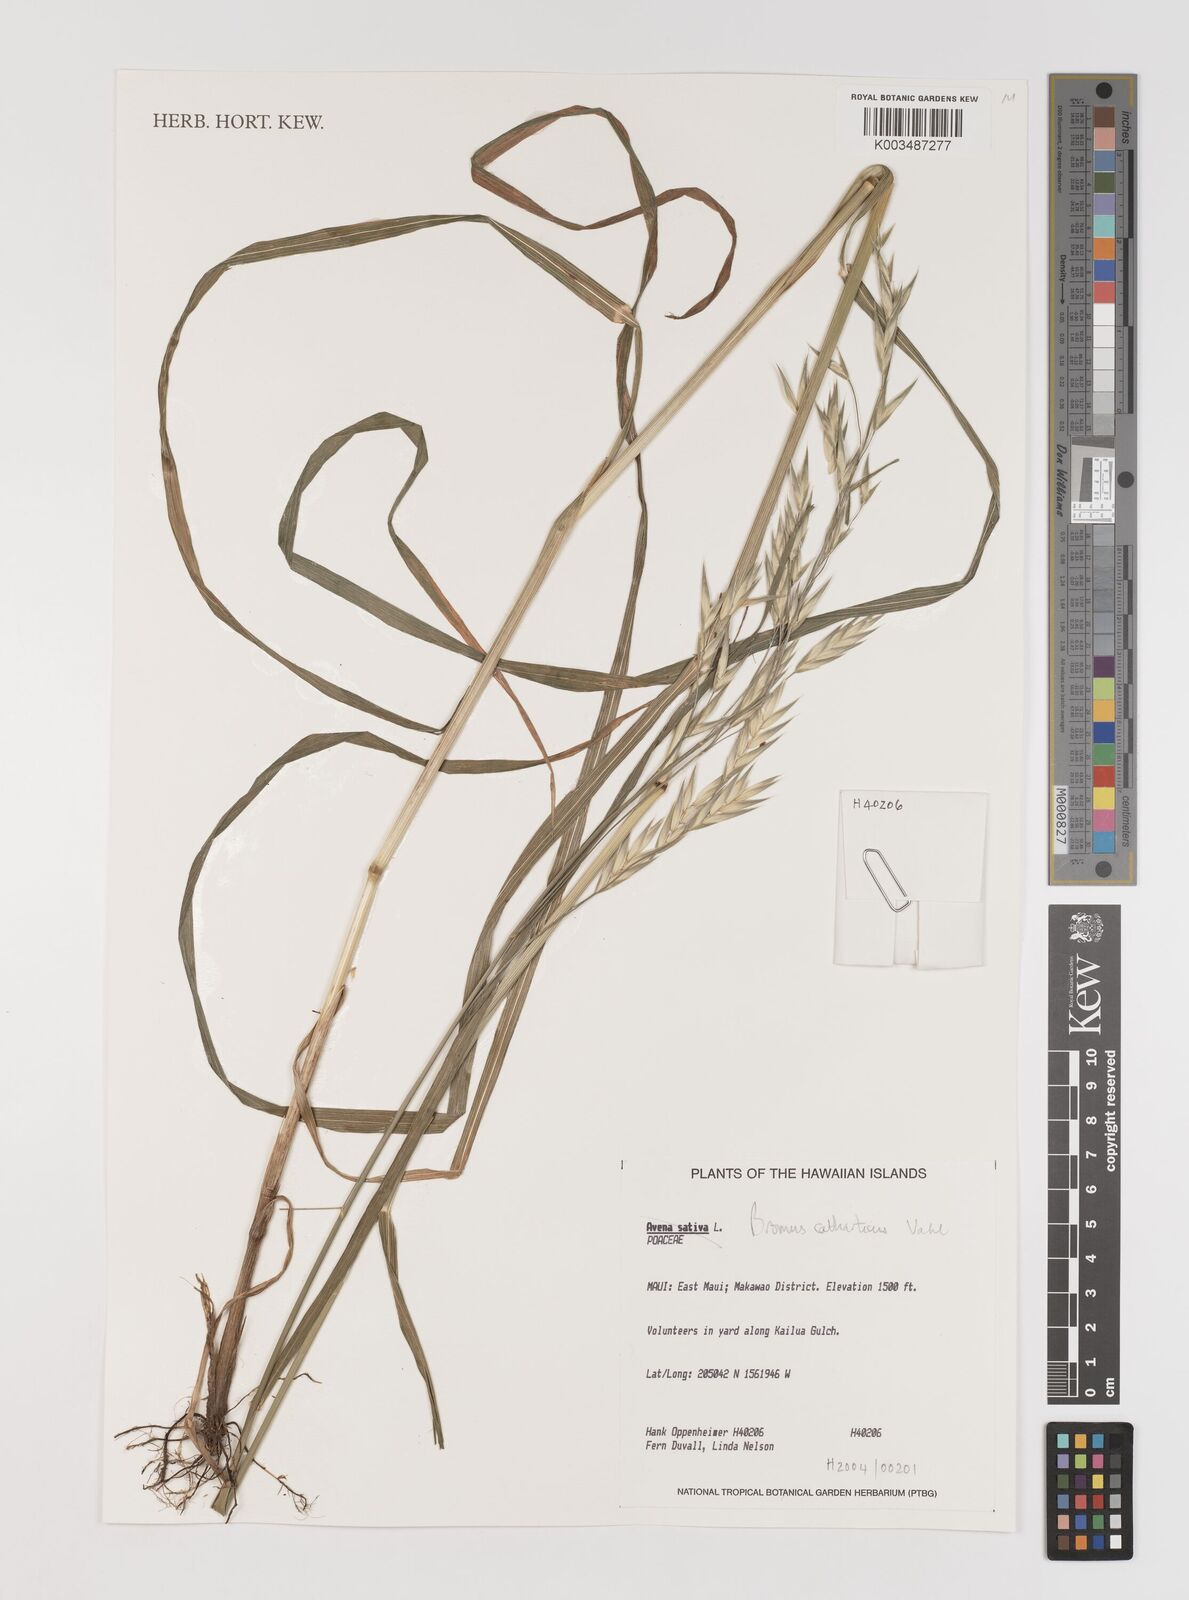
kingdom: Plantae
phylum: Tracheophyta
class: Liliopsida
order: Poales
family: Poaceae
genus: Bromus
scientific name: Bromus catharticus
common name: Rescuegrass
